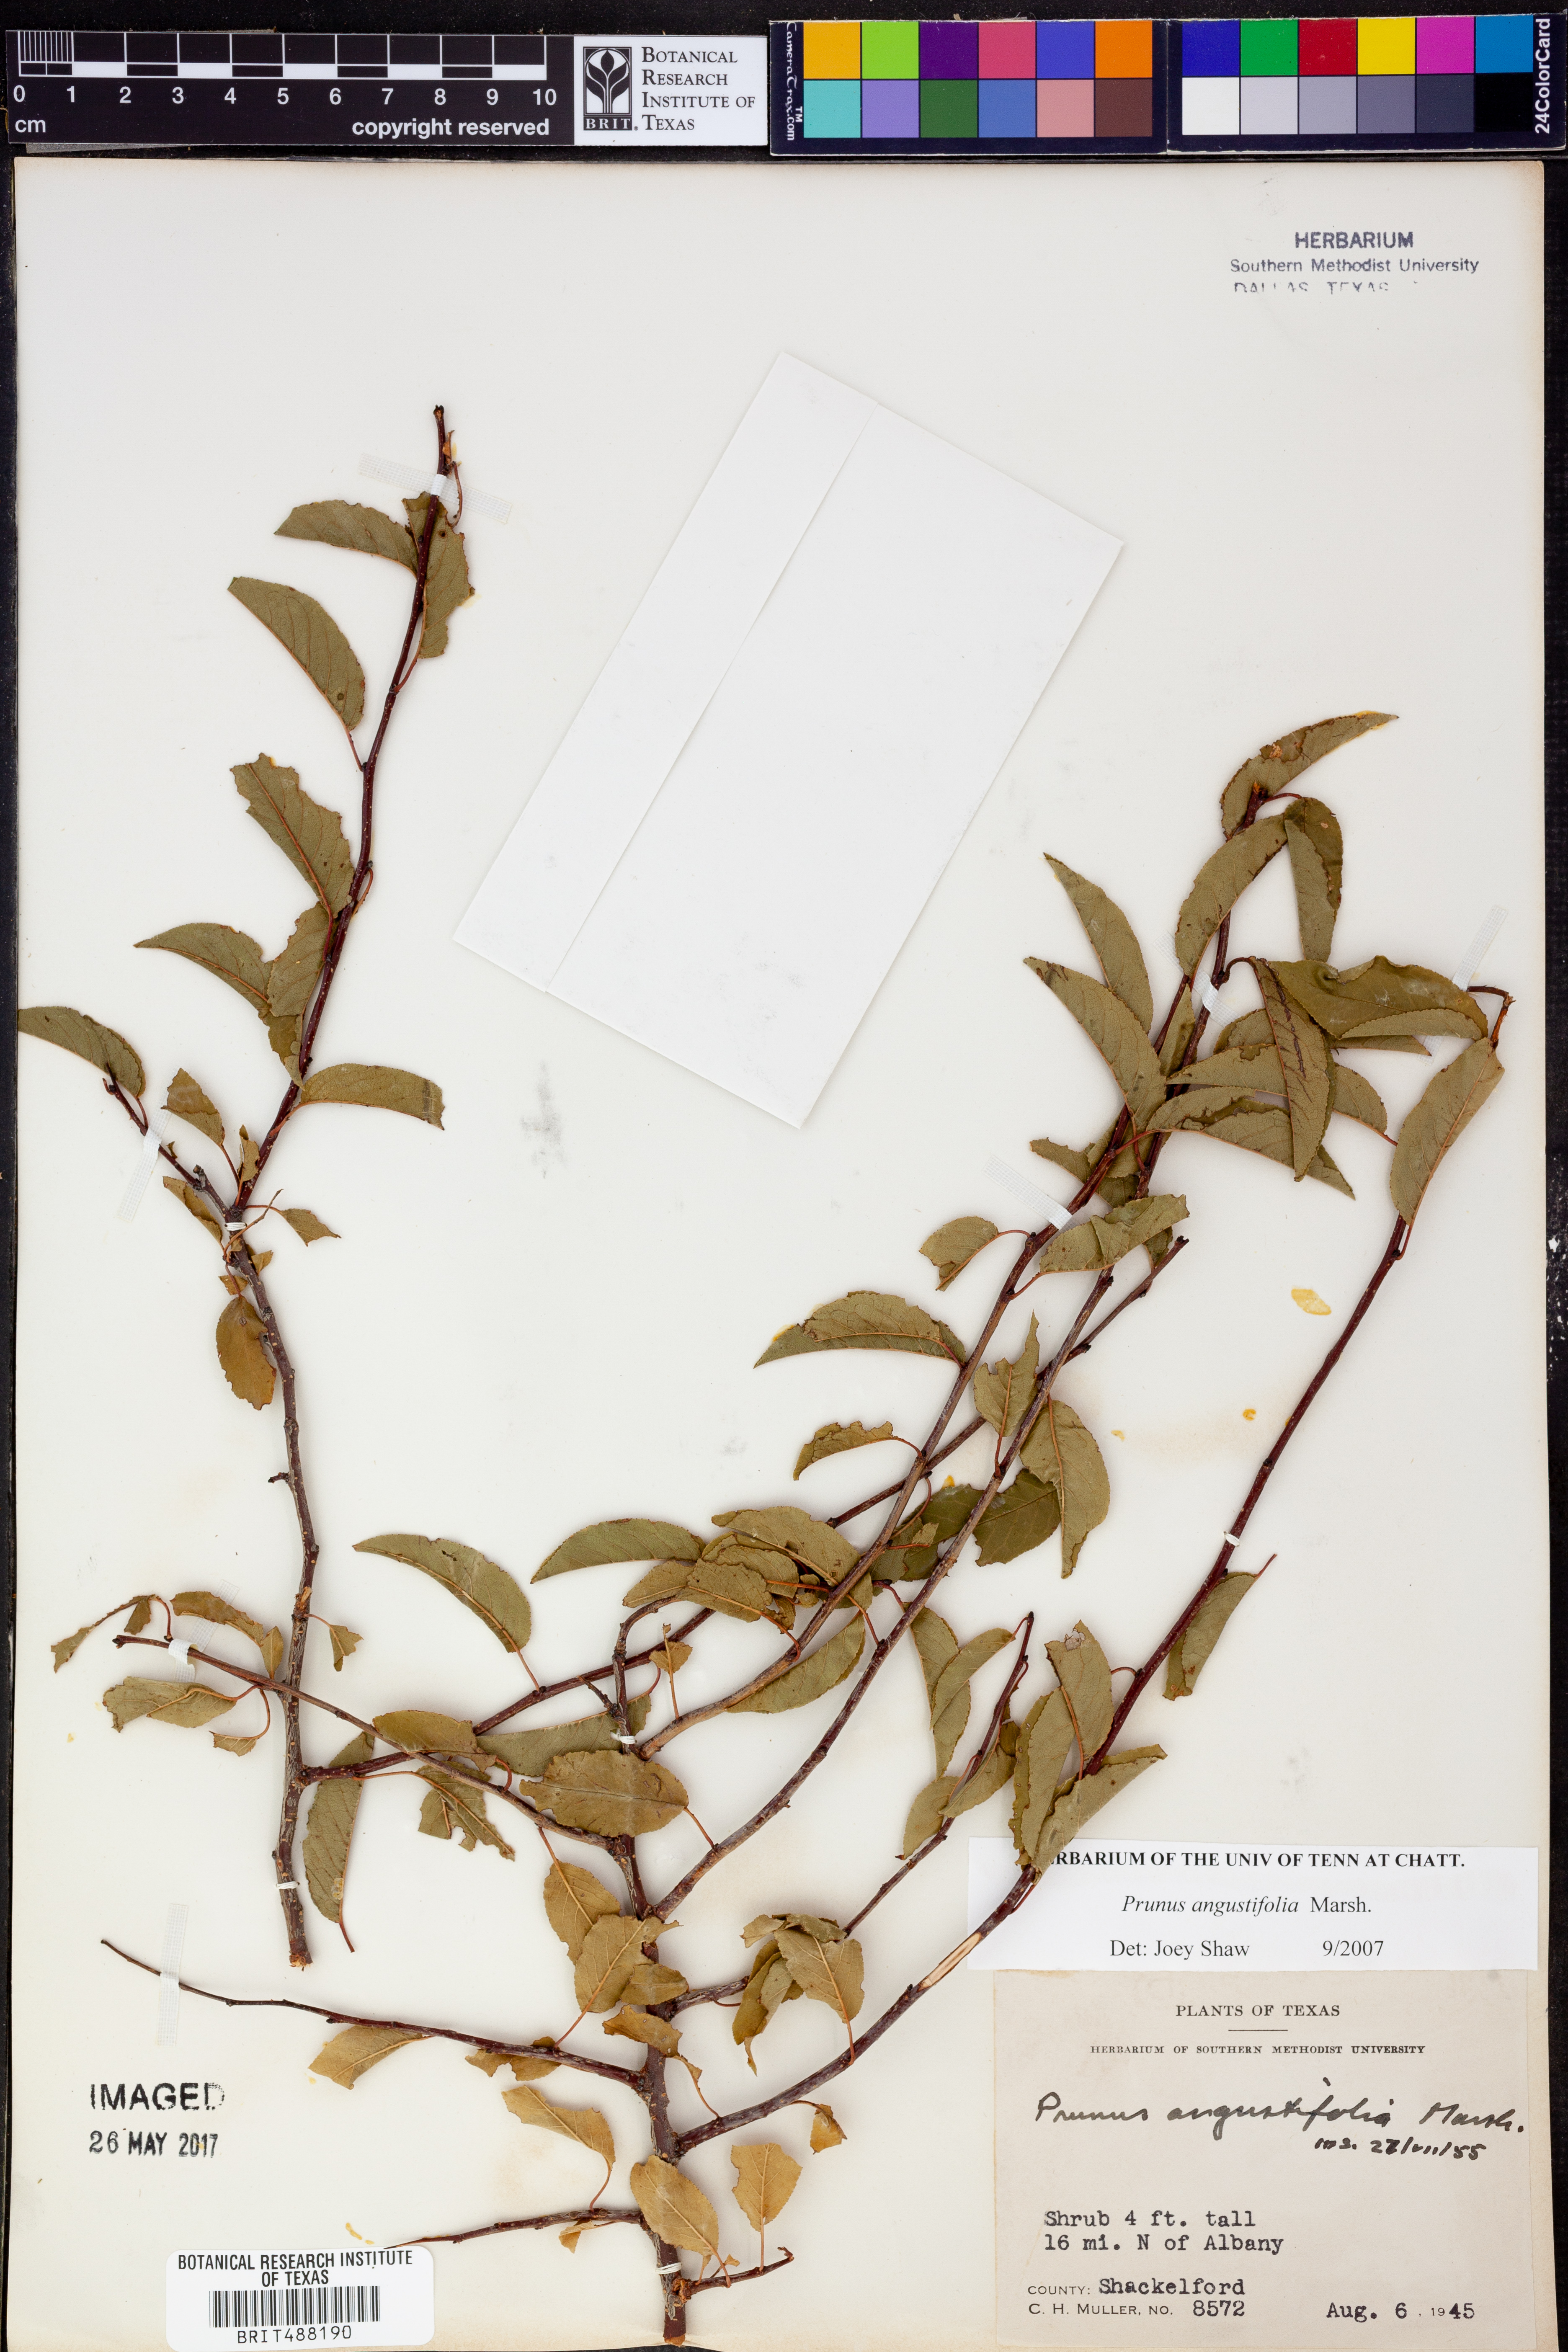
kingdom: Plantae
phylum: Tracheophyta
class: Magnoliopsida
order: Rosales
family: Rosaceae
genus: Prunus
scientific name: Prunus angustifolia
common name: Cherokee plum
